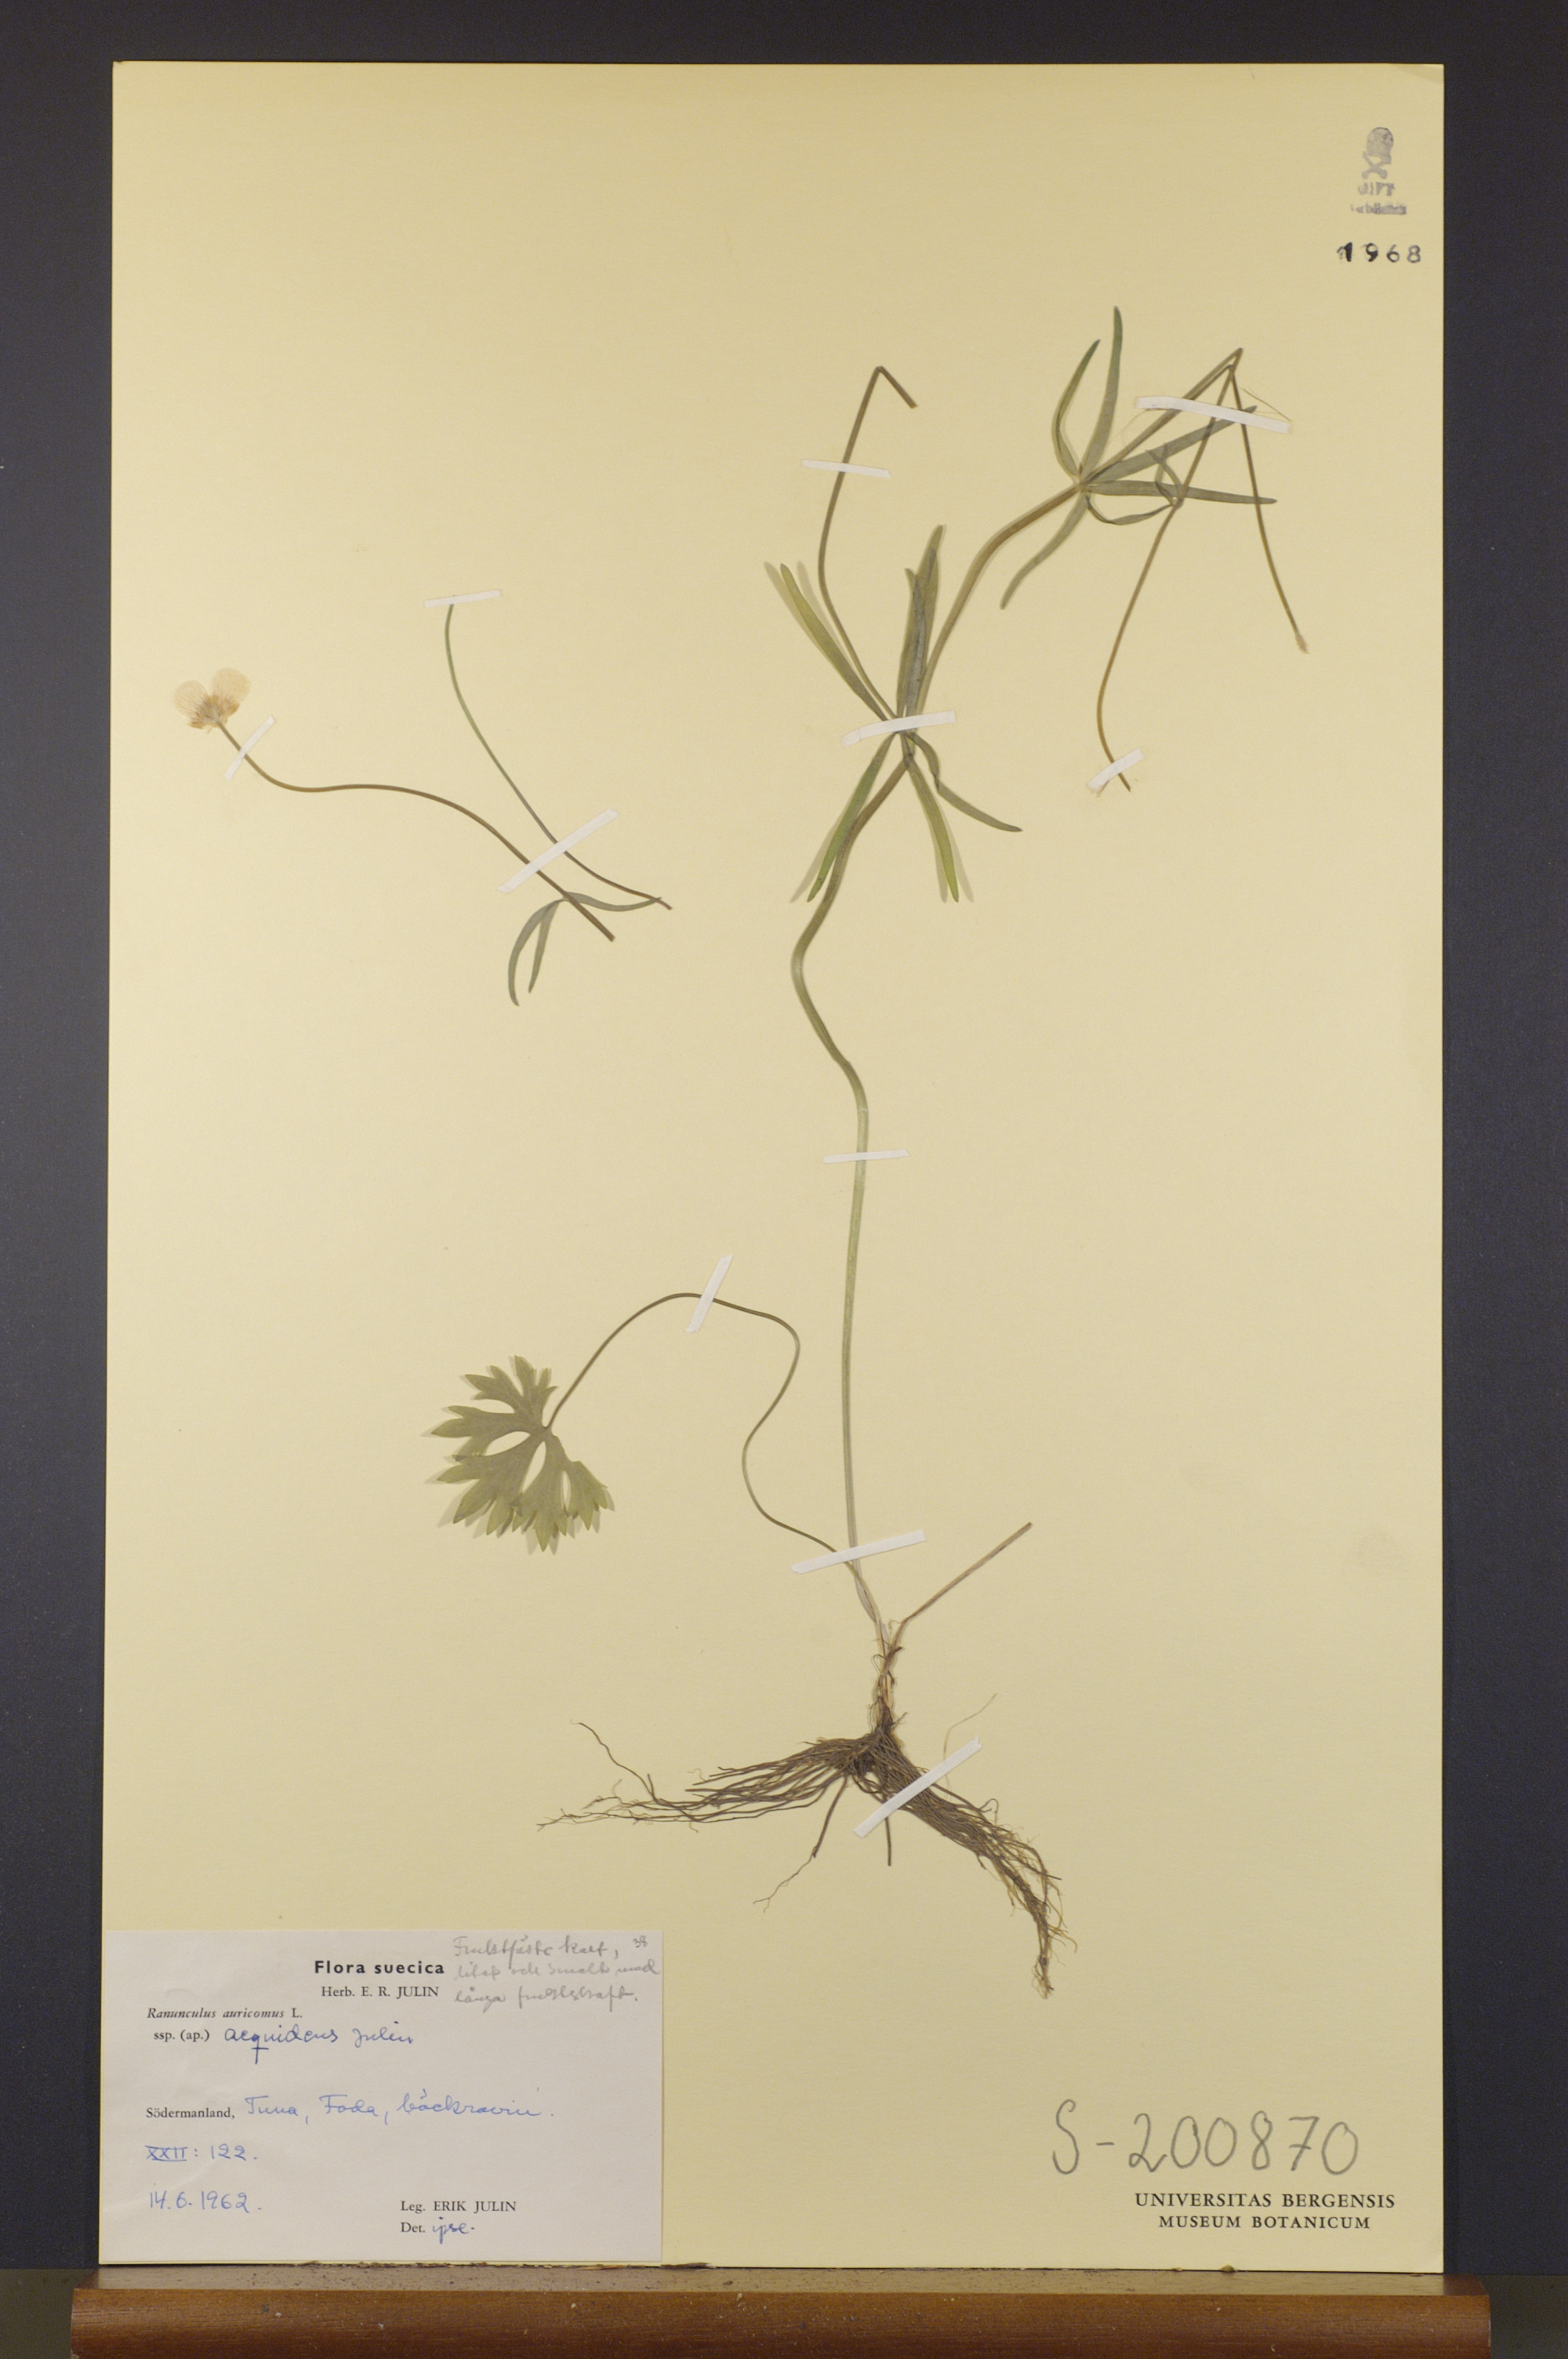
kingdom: Plantae
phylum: Tracheophyta
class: Magnoliopsida
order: Ranunculales
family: Ranunculaceae
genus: Ranunculus
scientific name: Ranunculus aequidens
